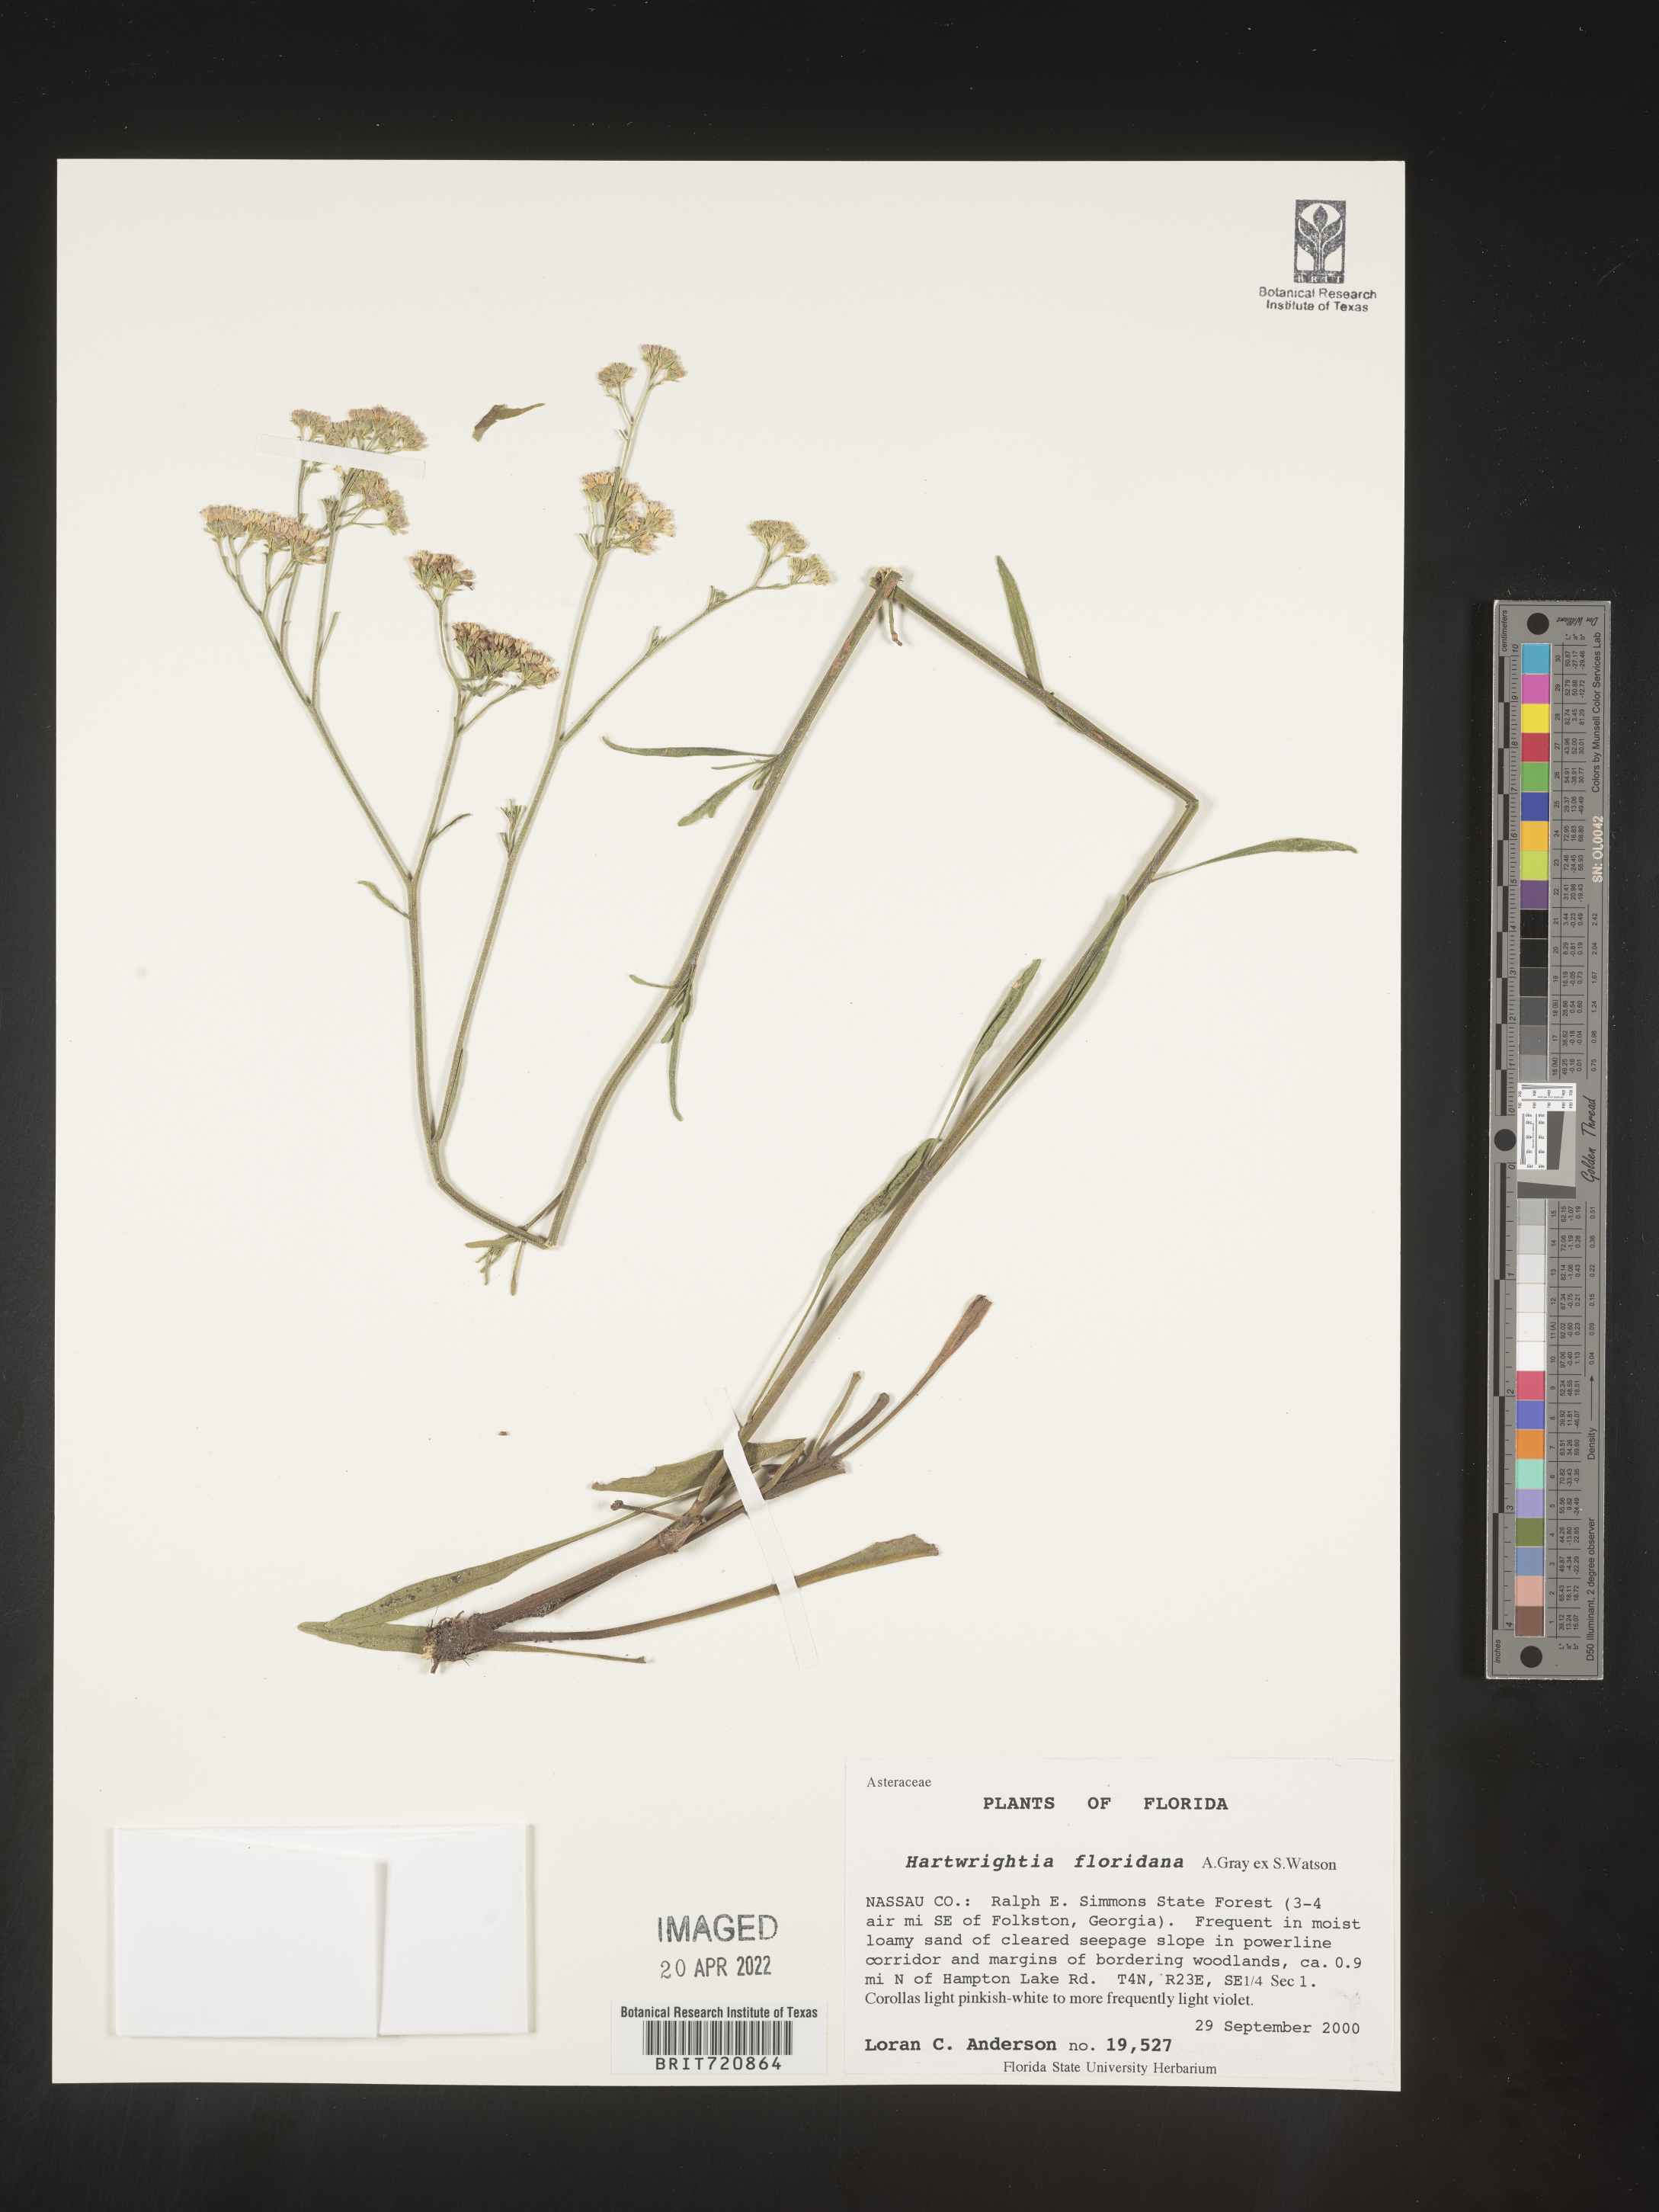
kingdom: Plantae
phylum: Tracheophyta
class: Magnoliopsida
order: Asterales
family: Asteraceae
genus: Hartwrightia
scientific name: Hartwrightia
